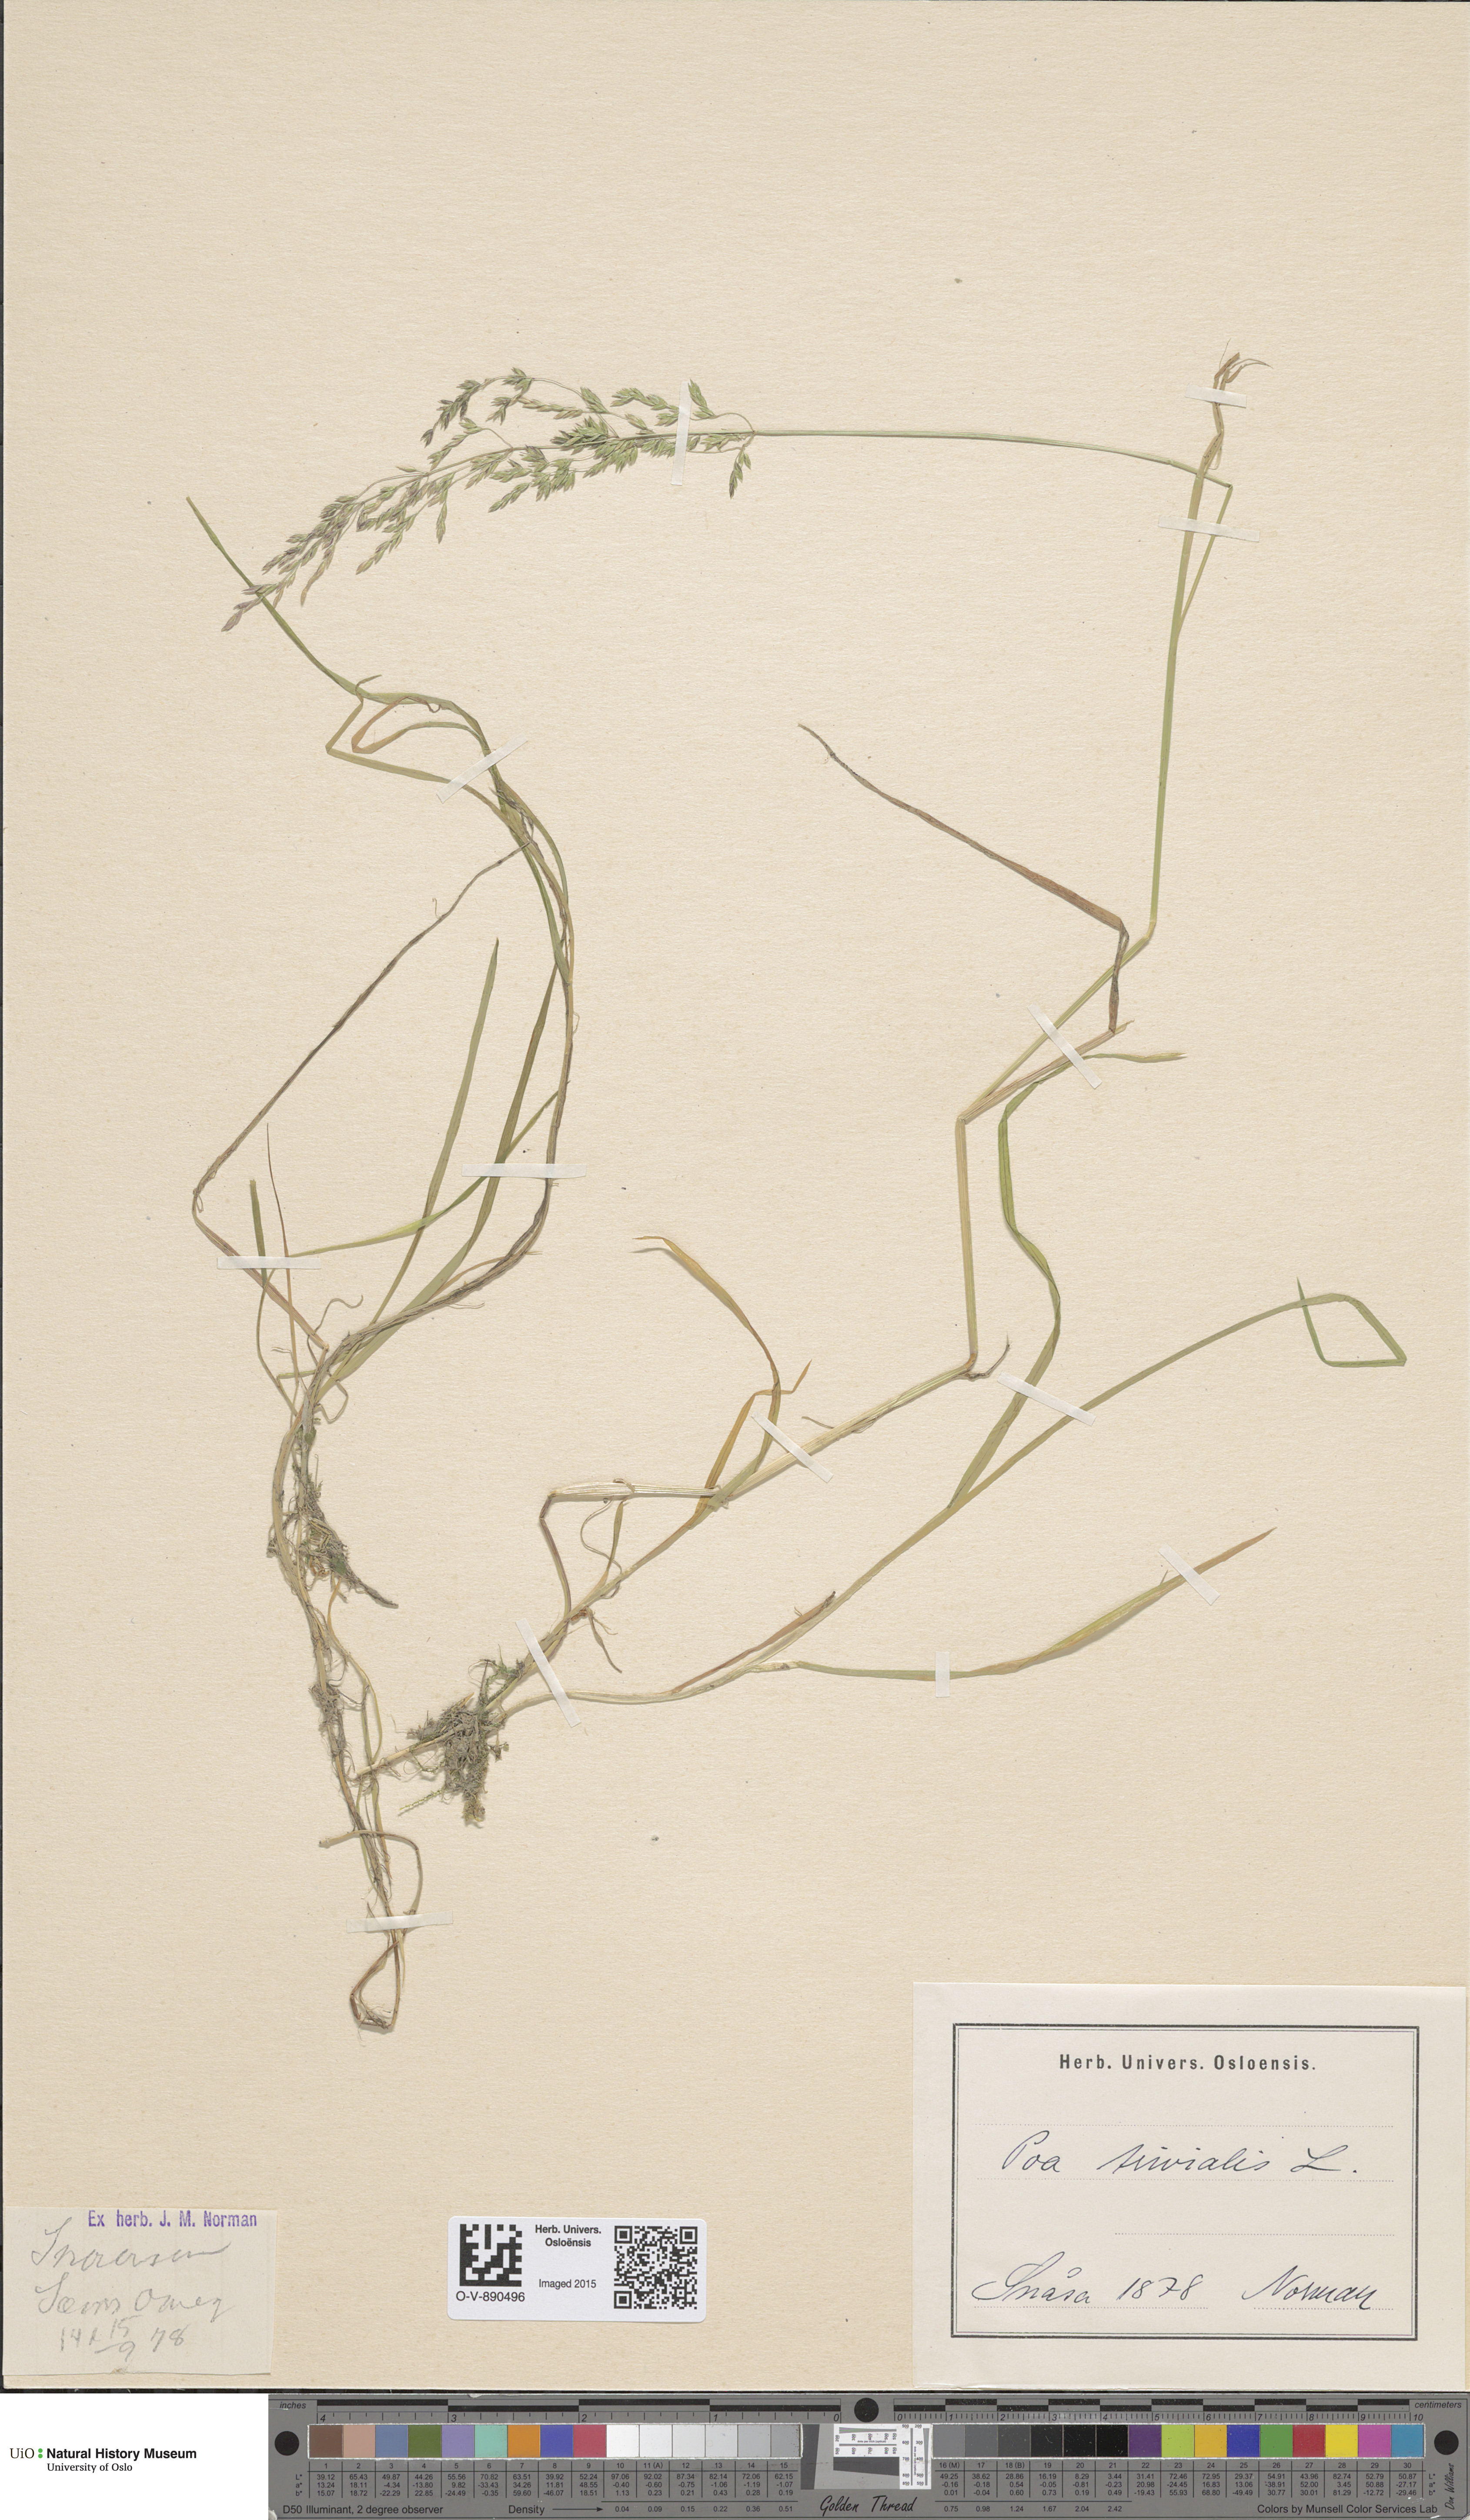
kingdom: Plantae
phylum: Tracheophyta
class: Liliopsida
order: Poales
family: Poaceae
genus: Poa
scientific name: Poa trivialis
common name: Rough bluegrass
